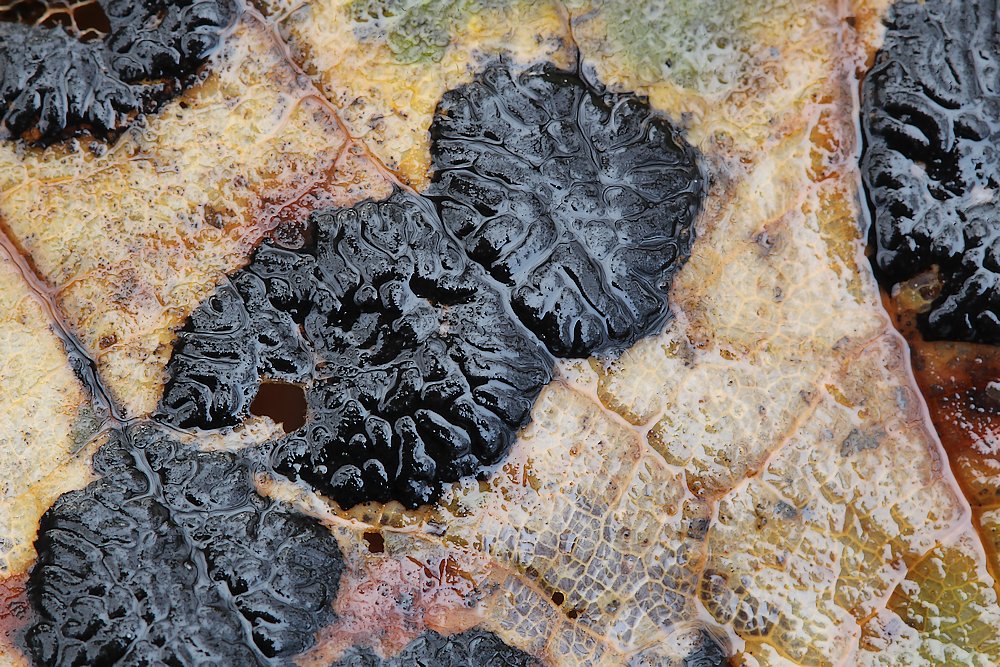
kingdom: Fungi
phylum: Ascomycota
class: Leotiomycetes
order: Rhytismatales
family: Rhytismataceae
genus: Rhytisma
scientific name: Rhytisma acerinum
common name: ahorn-rynkeplet
